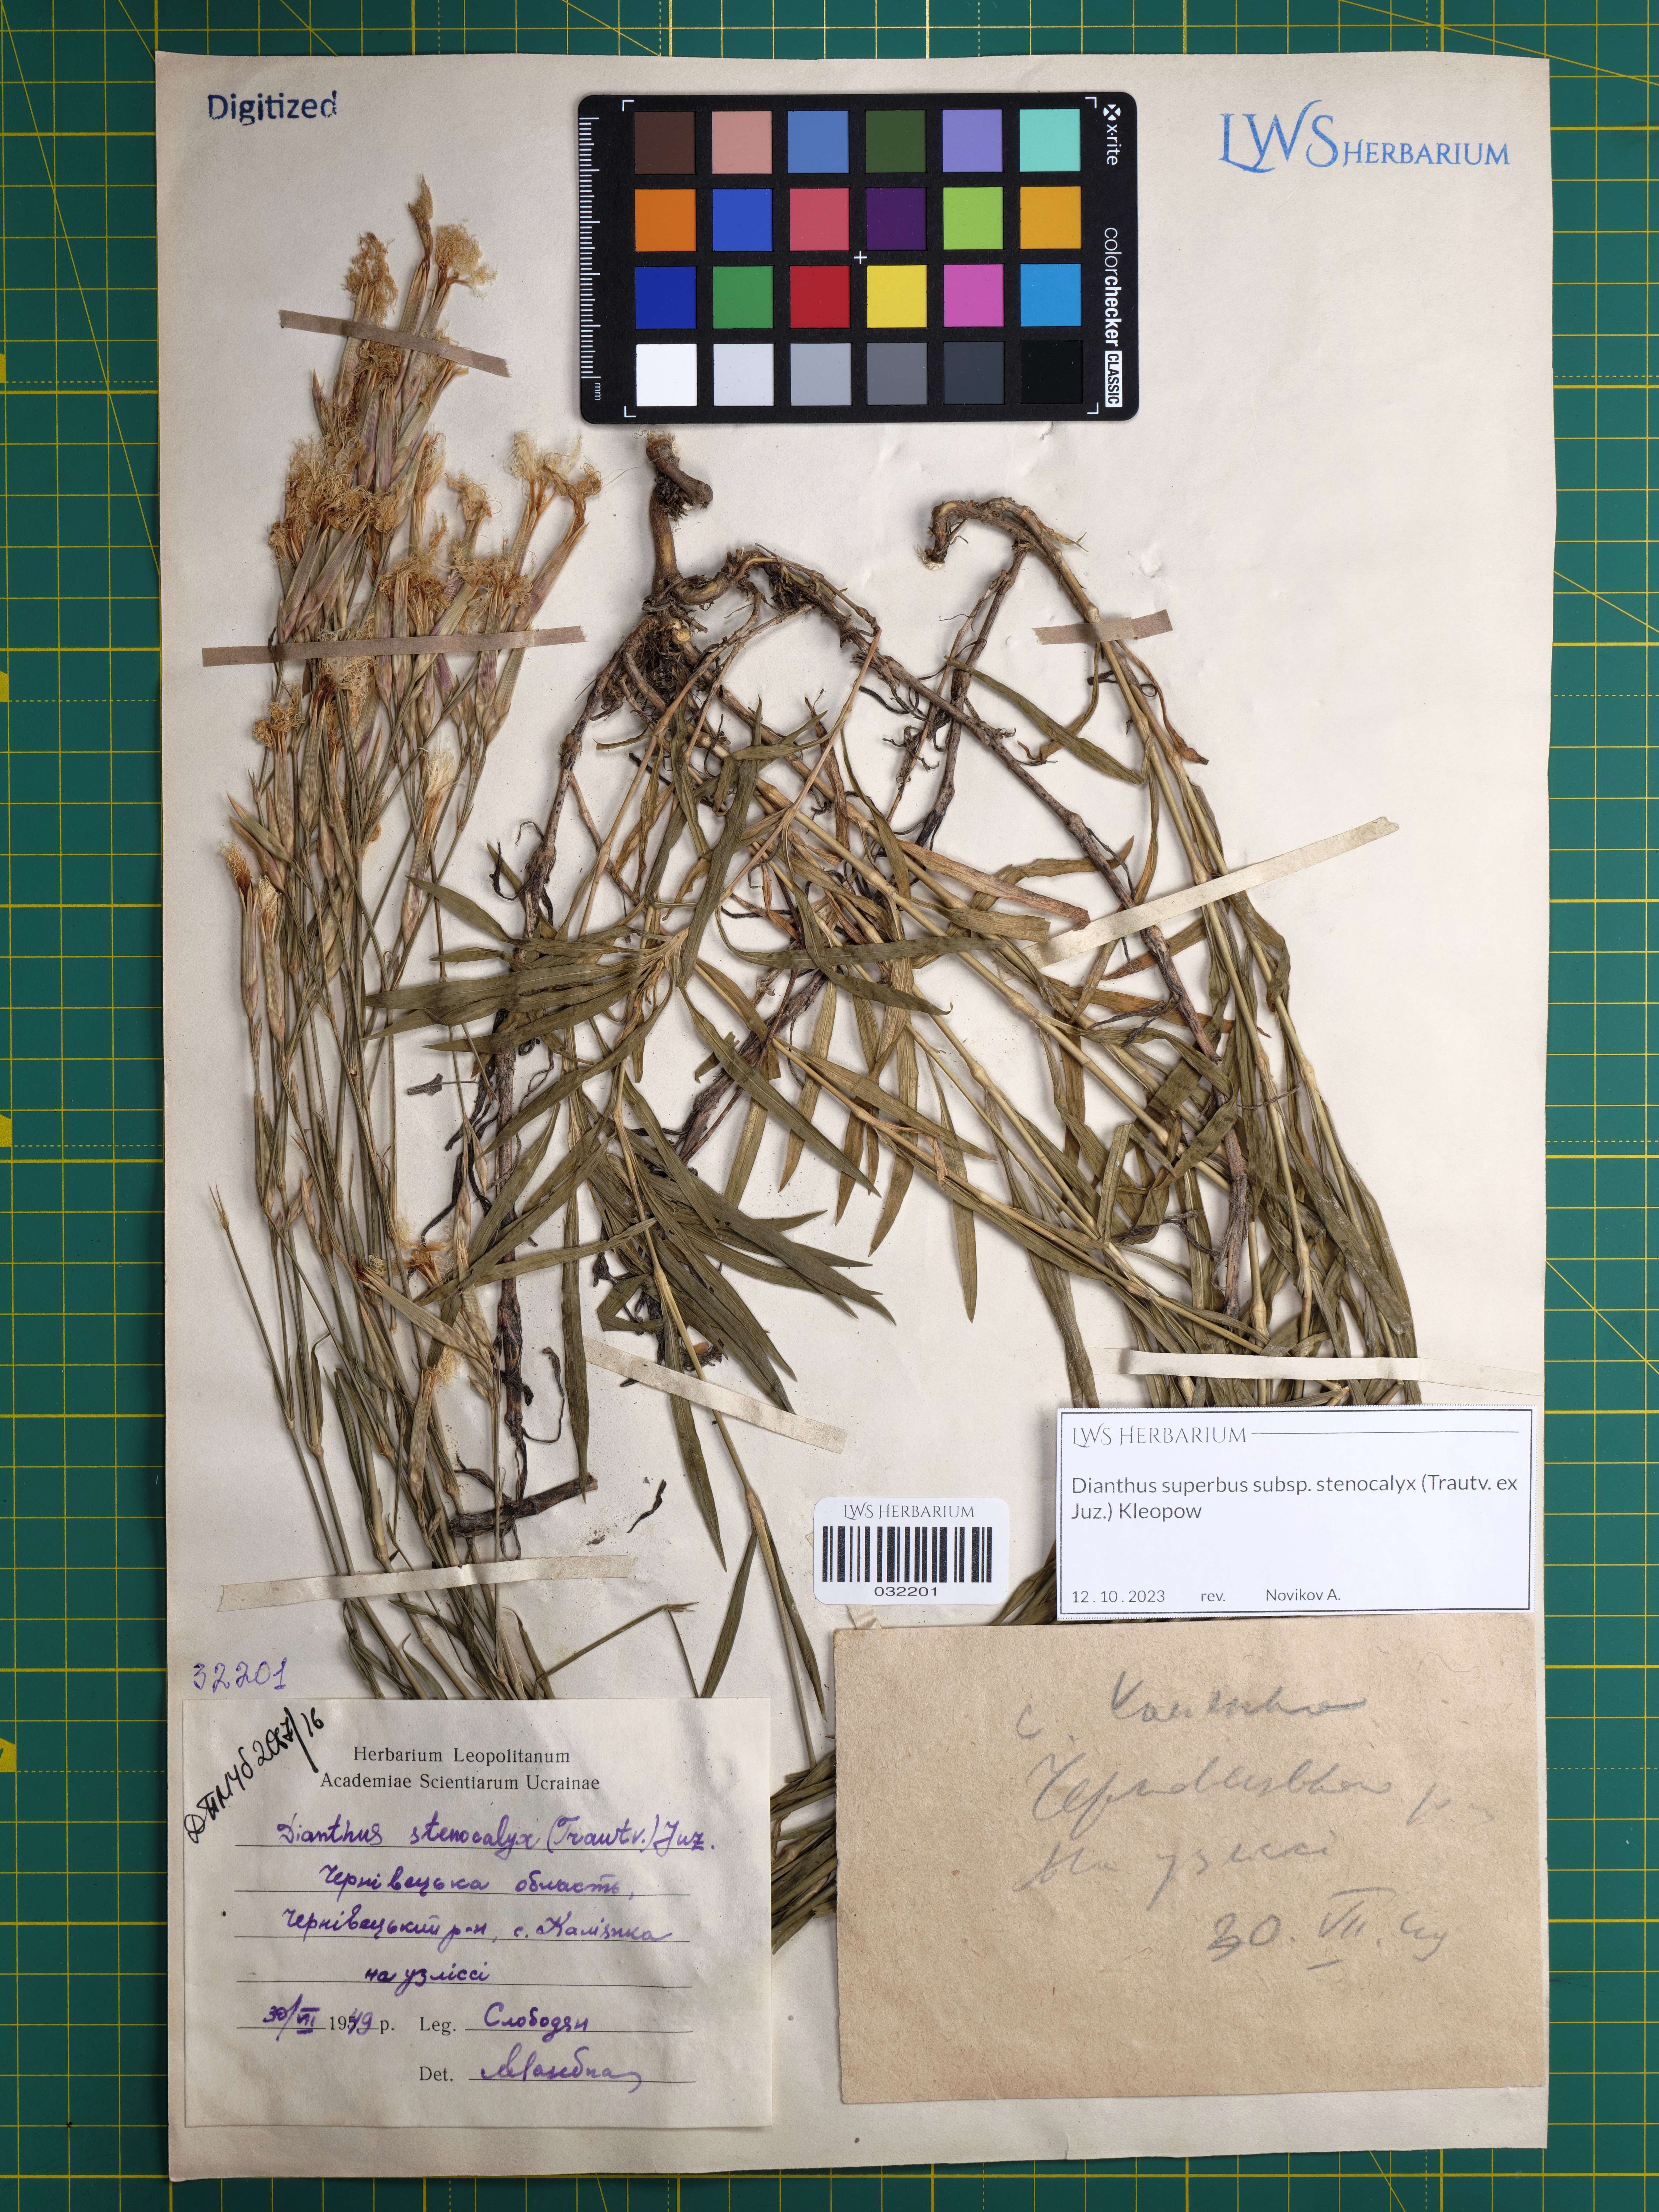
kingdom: Plantae
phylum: Tracheophyta
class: Magnoliopsida
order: Caryophyllales
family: Caryophyllaceae
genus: Dianthus
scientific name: Dianthus superbus
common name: Fringed pink
